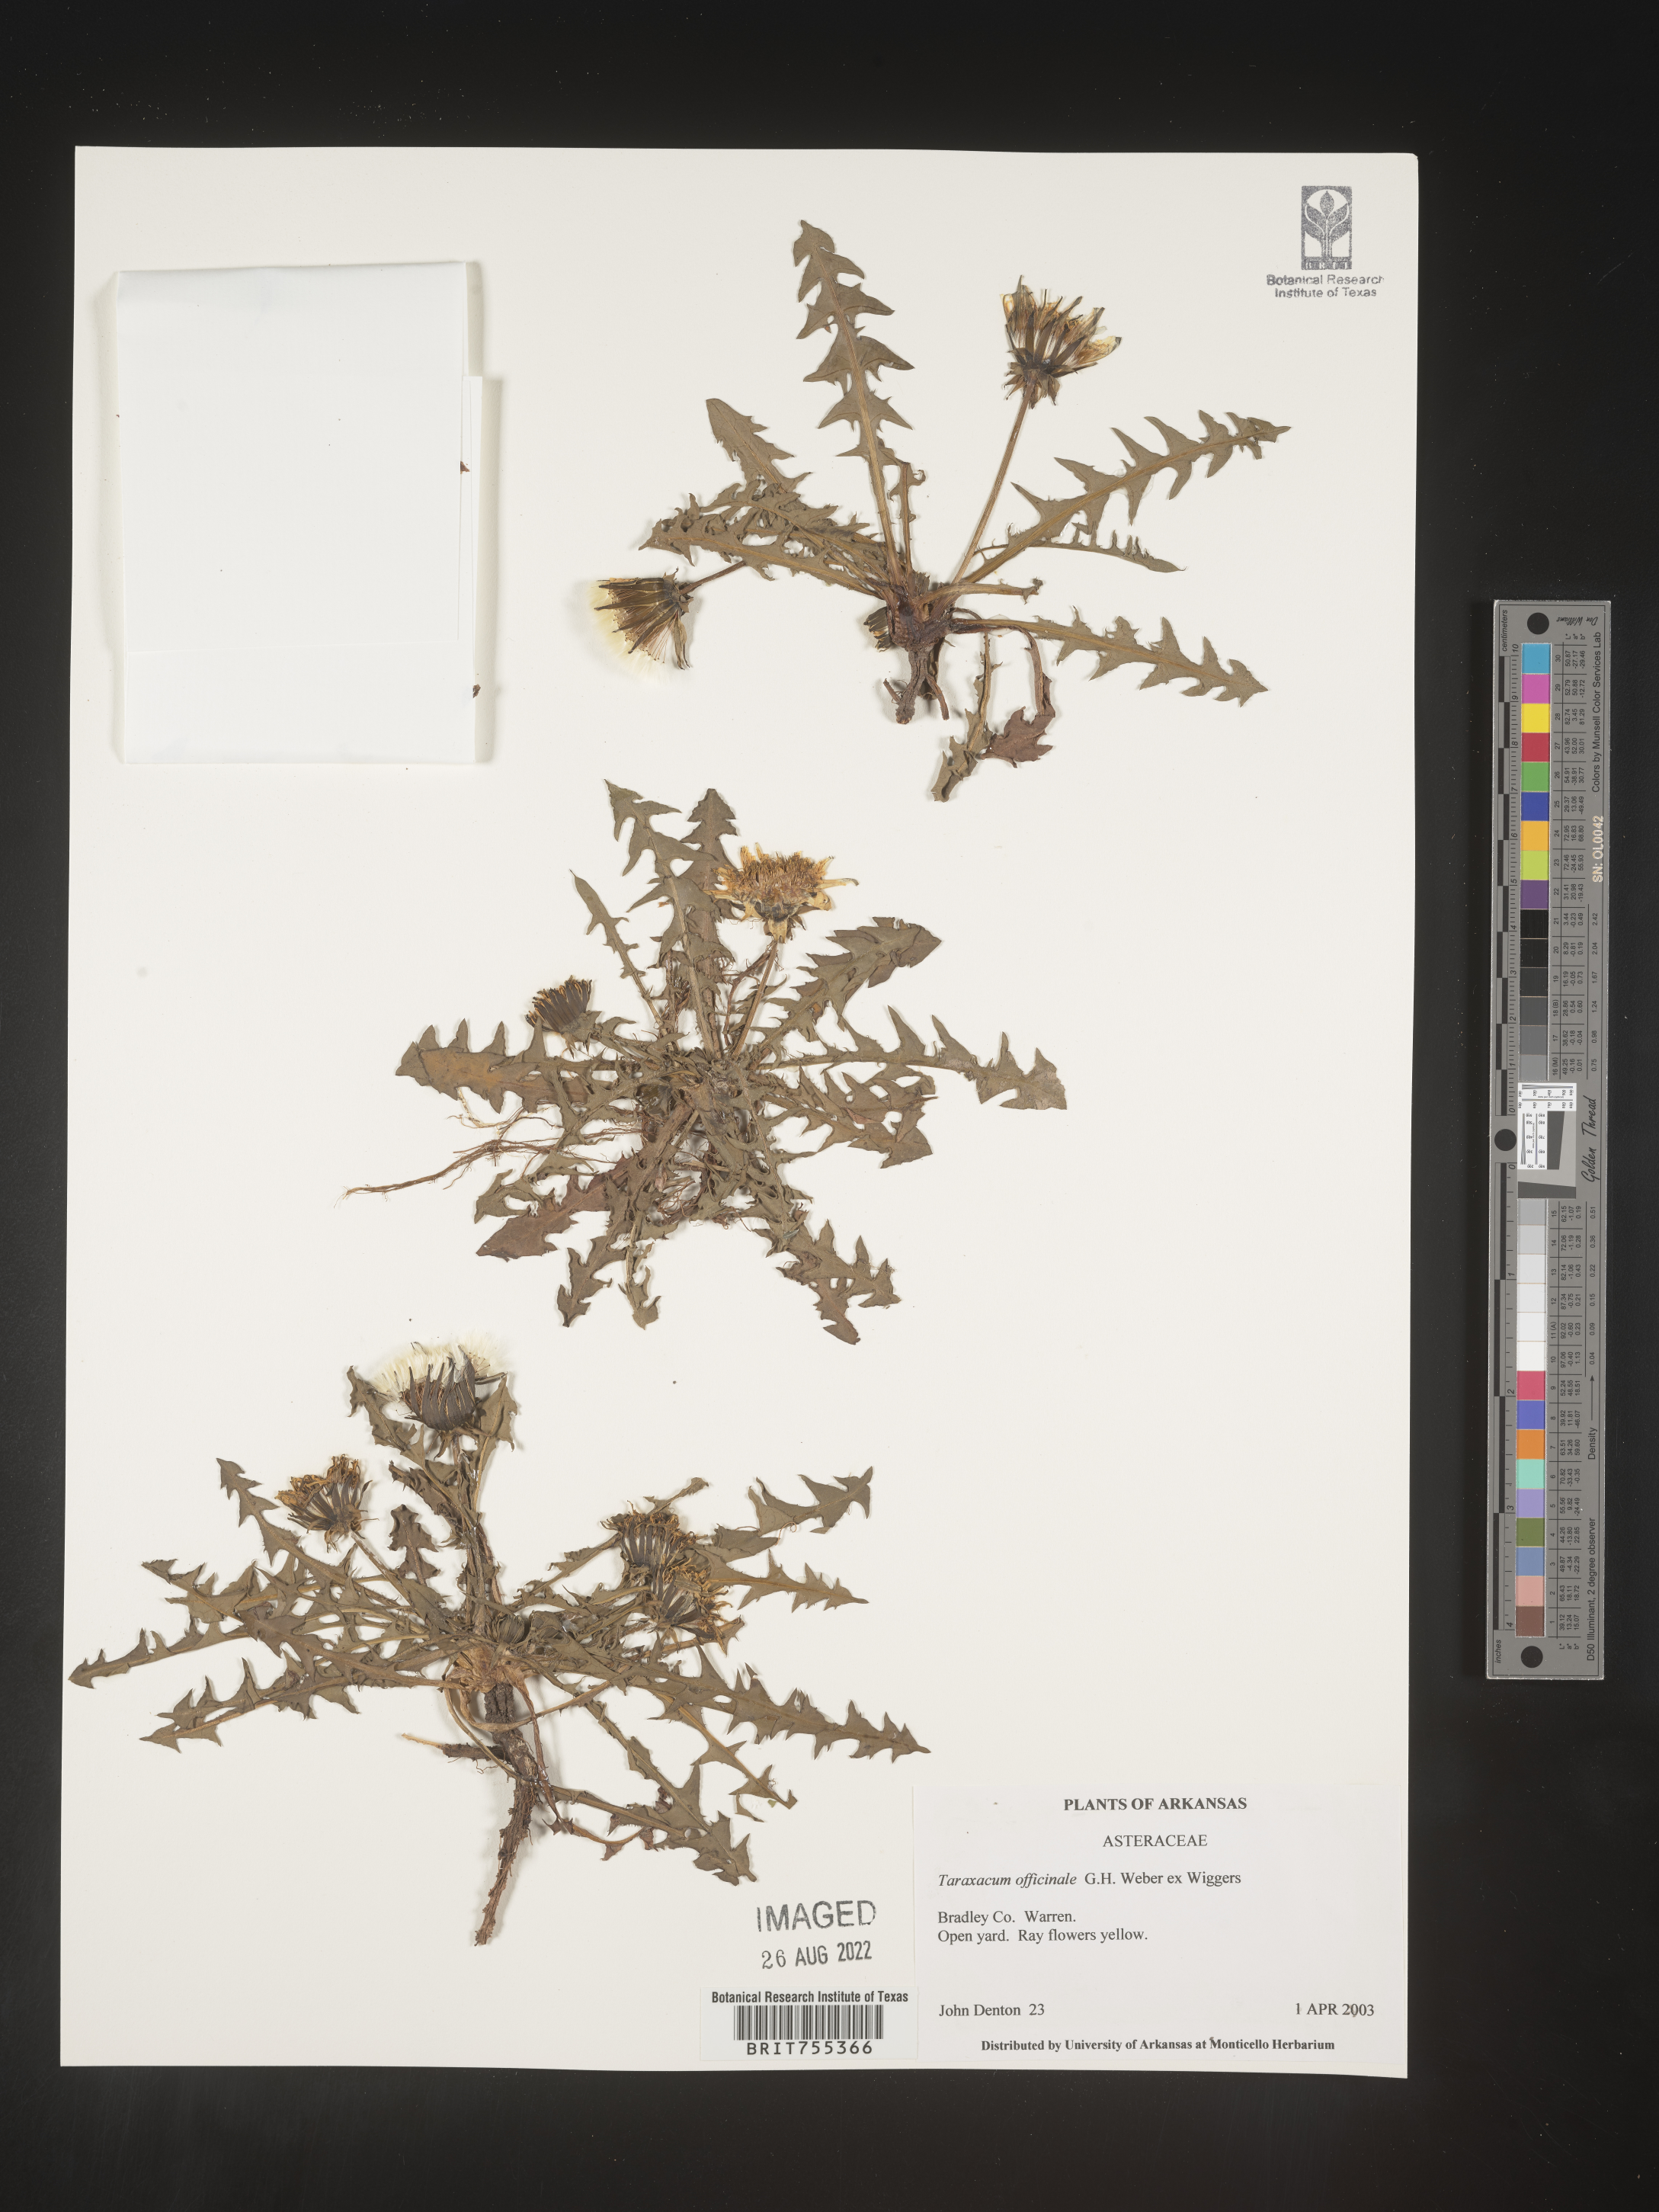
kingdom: Plantae
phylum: Tracheophyta
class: Magnoliopsida
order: Asterales
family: Asteraceae
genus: Taraxacum
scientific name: Taraxacum officinale
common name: Common dandelion
